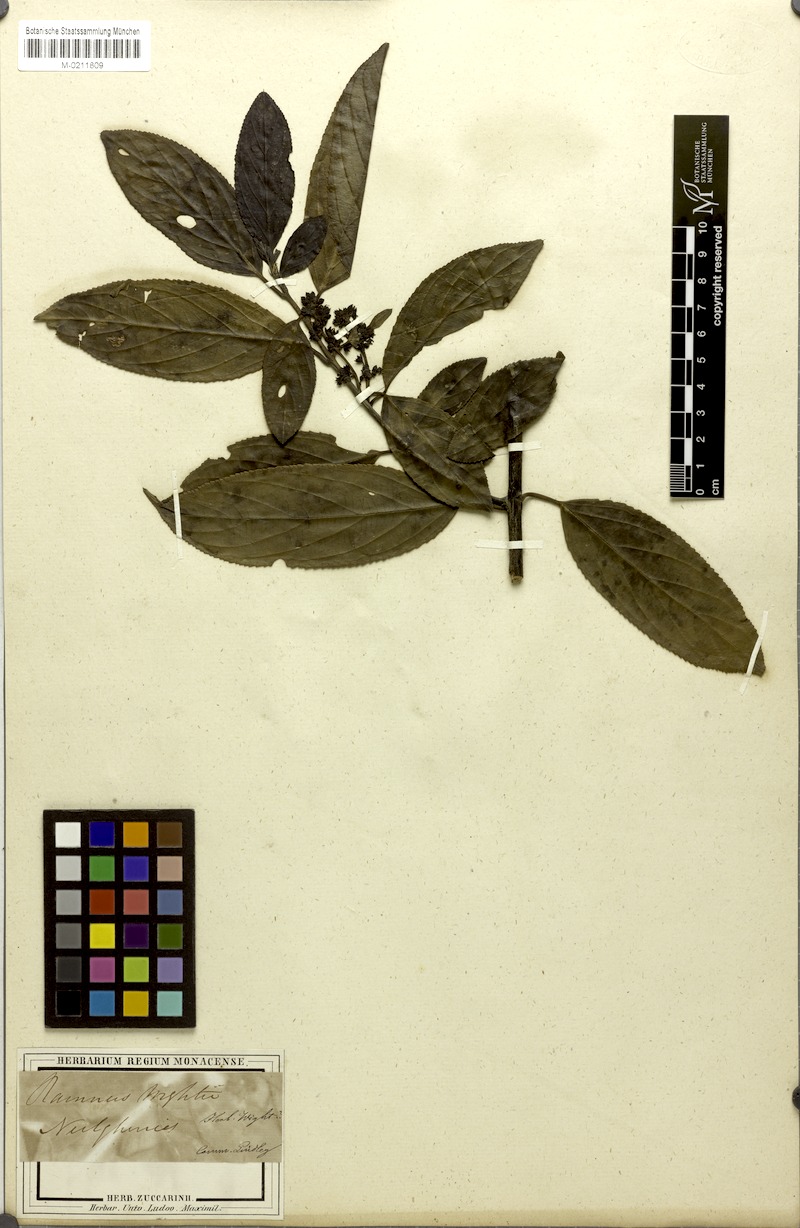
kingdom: Plantae
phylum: Tracheophyta
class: Magnoliopsida
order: Rosales
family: Rhamnaceae
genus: Rhamnus
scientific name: Rhamnus wightii
